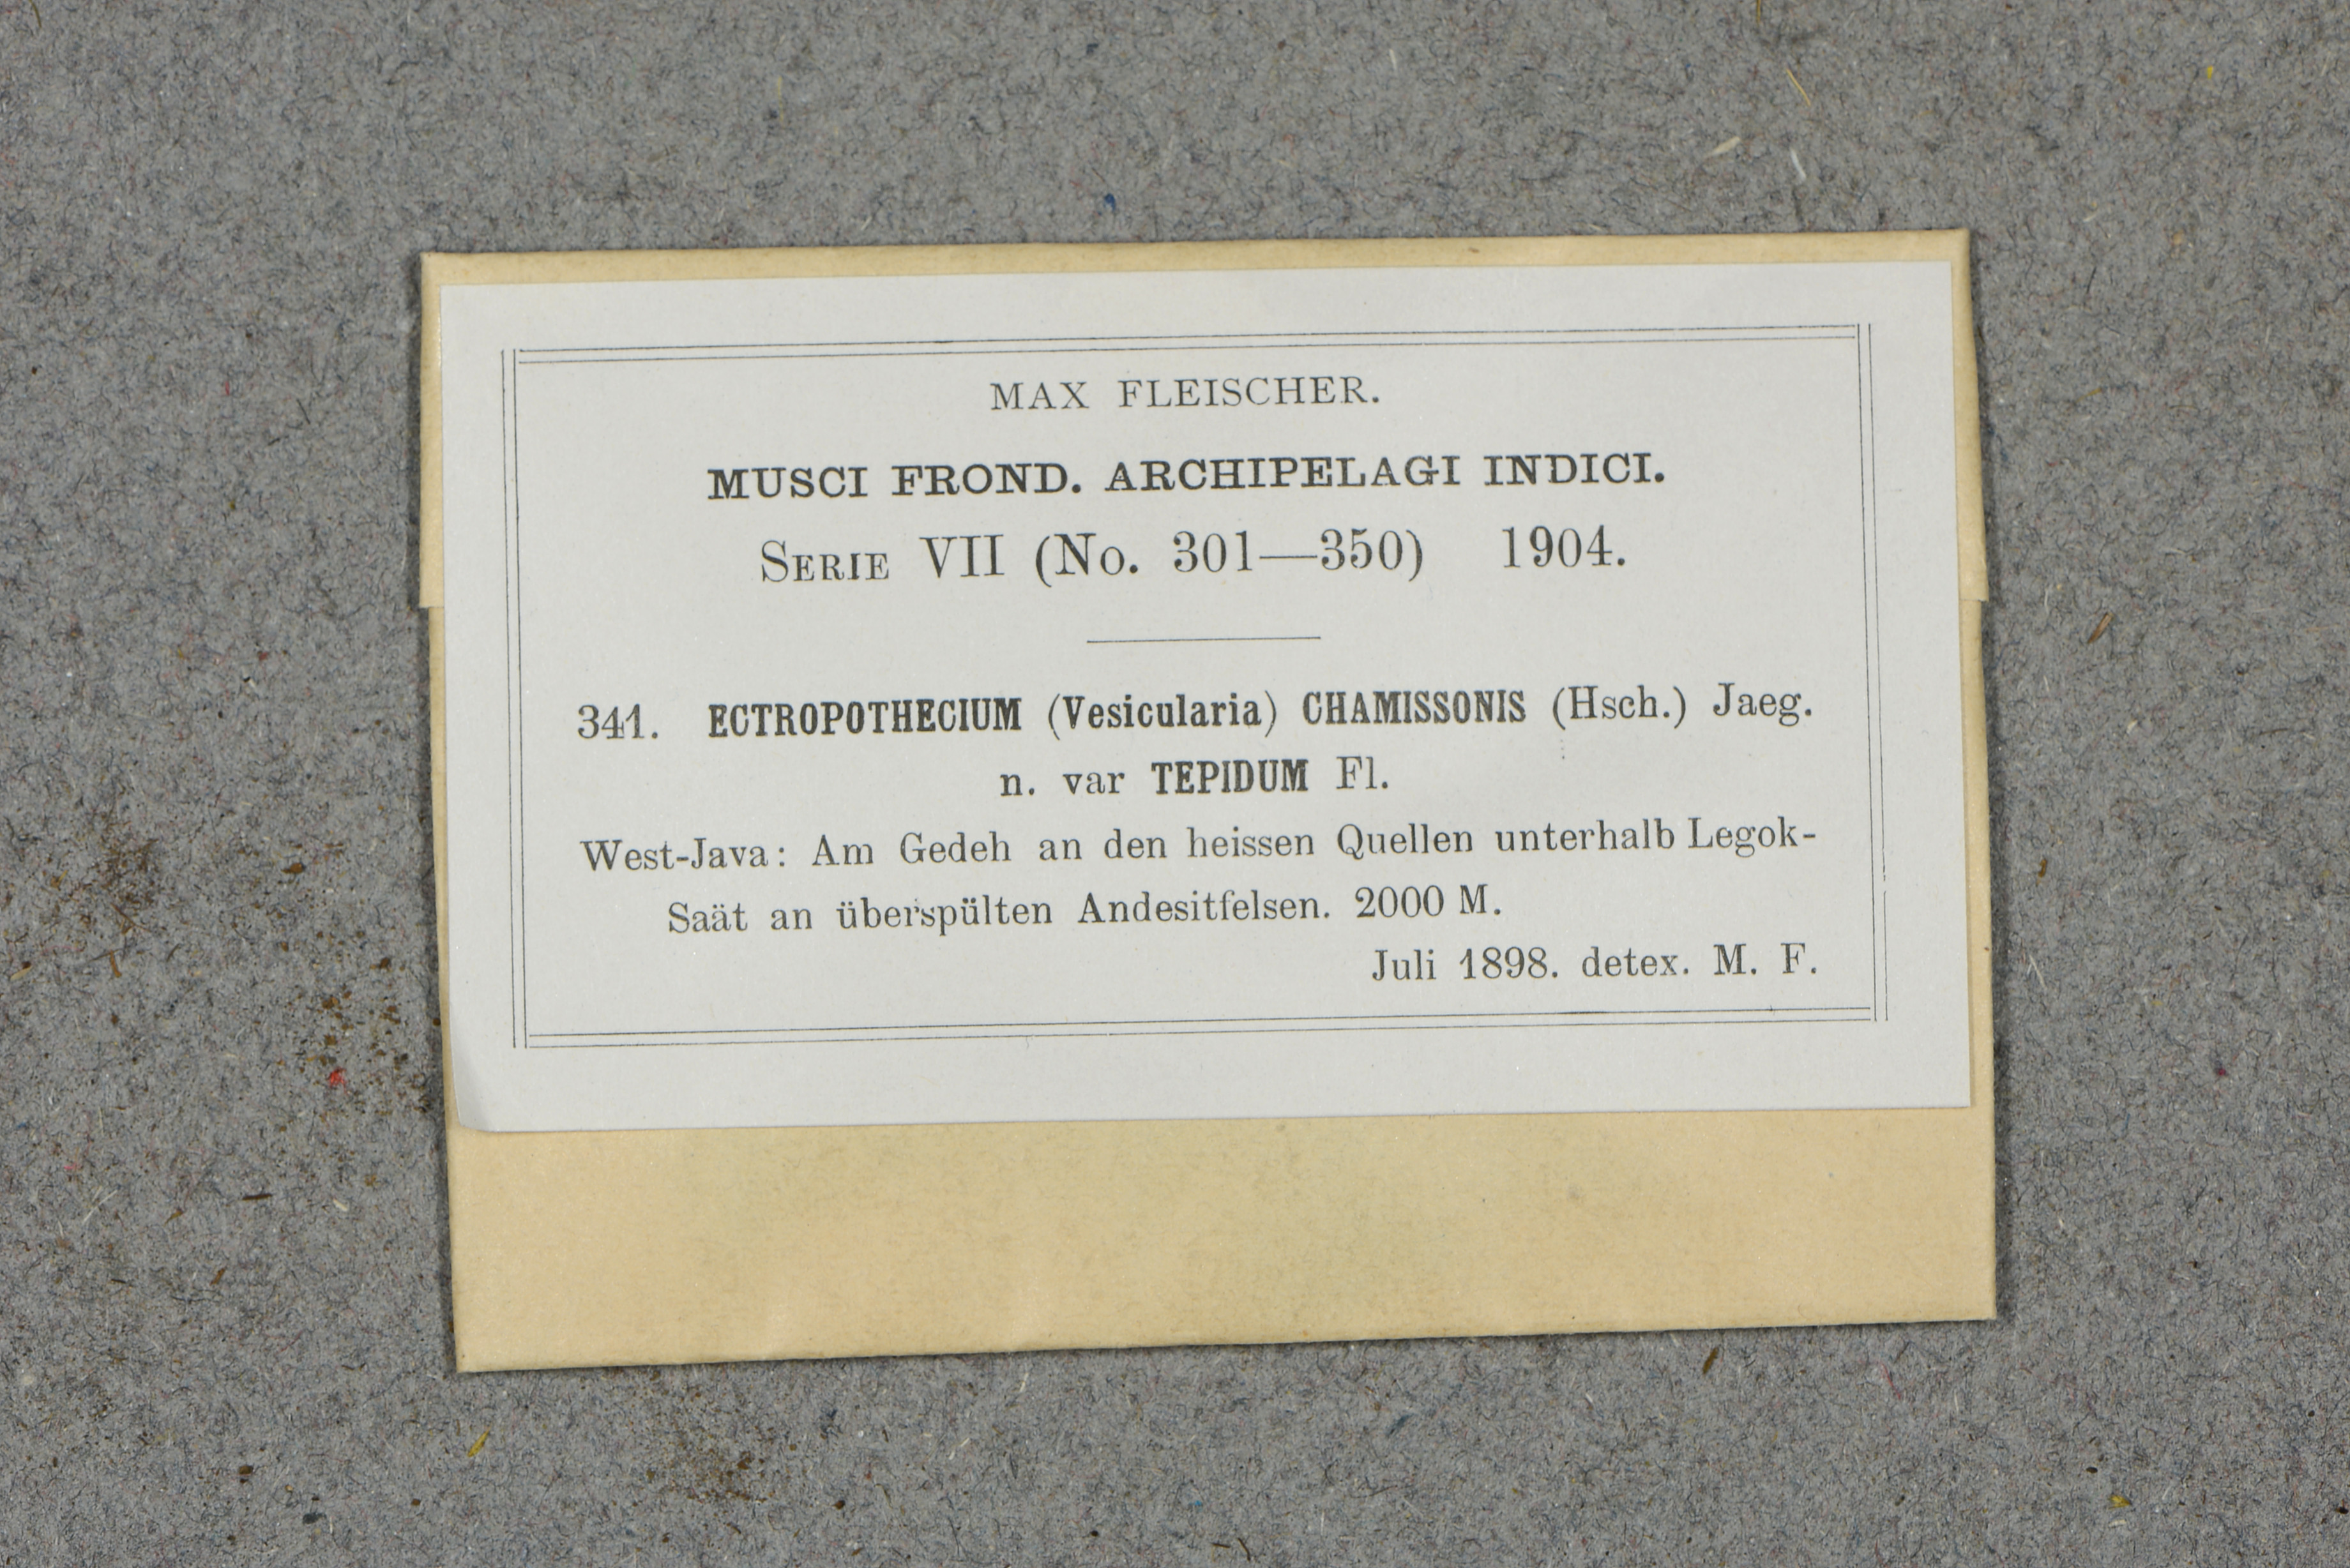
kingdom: Plantae
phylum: Bryophyta
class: Bryopsida
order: Hypnales
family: Hypnaceae
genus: Ectropothecium
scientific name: Ectropothecium chamissonis
